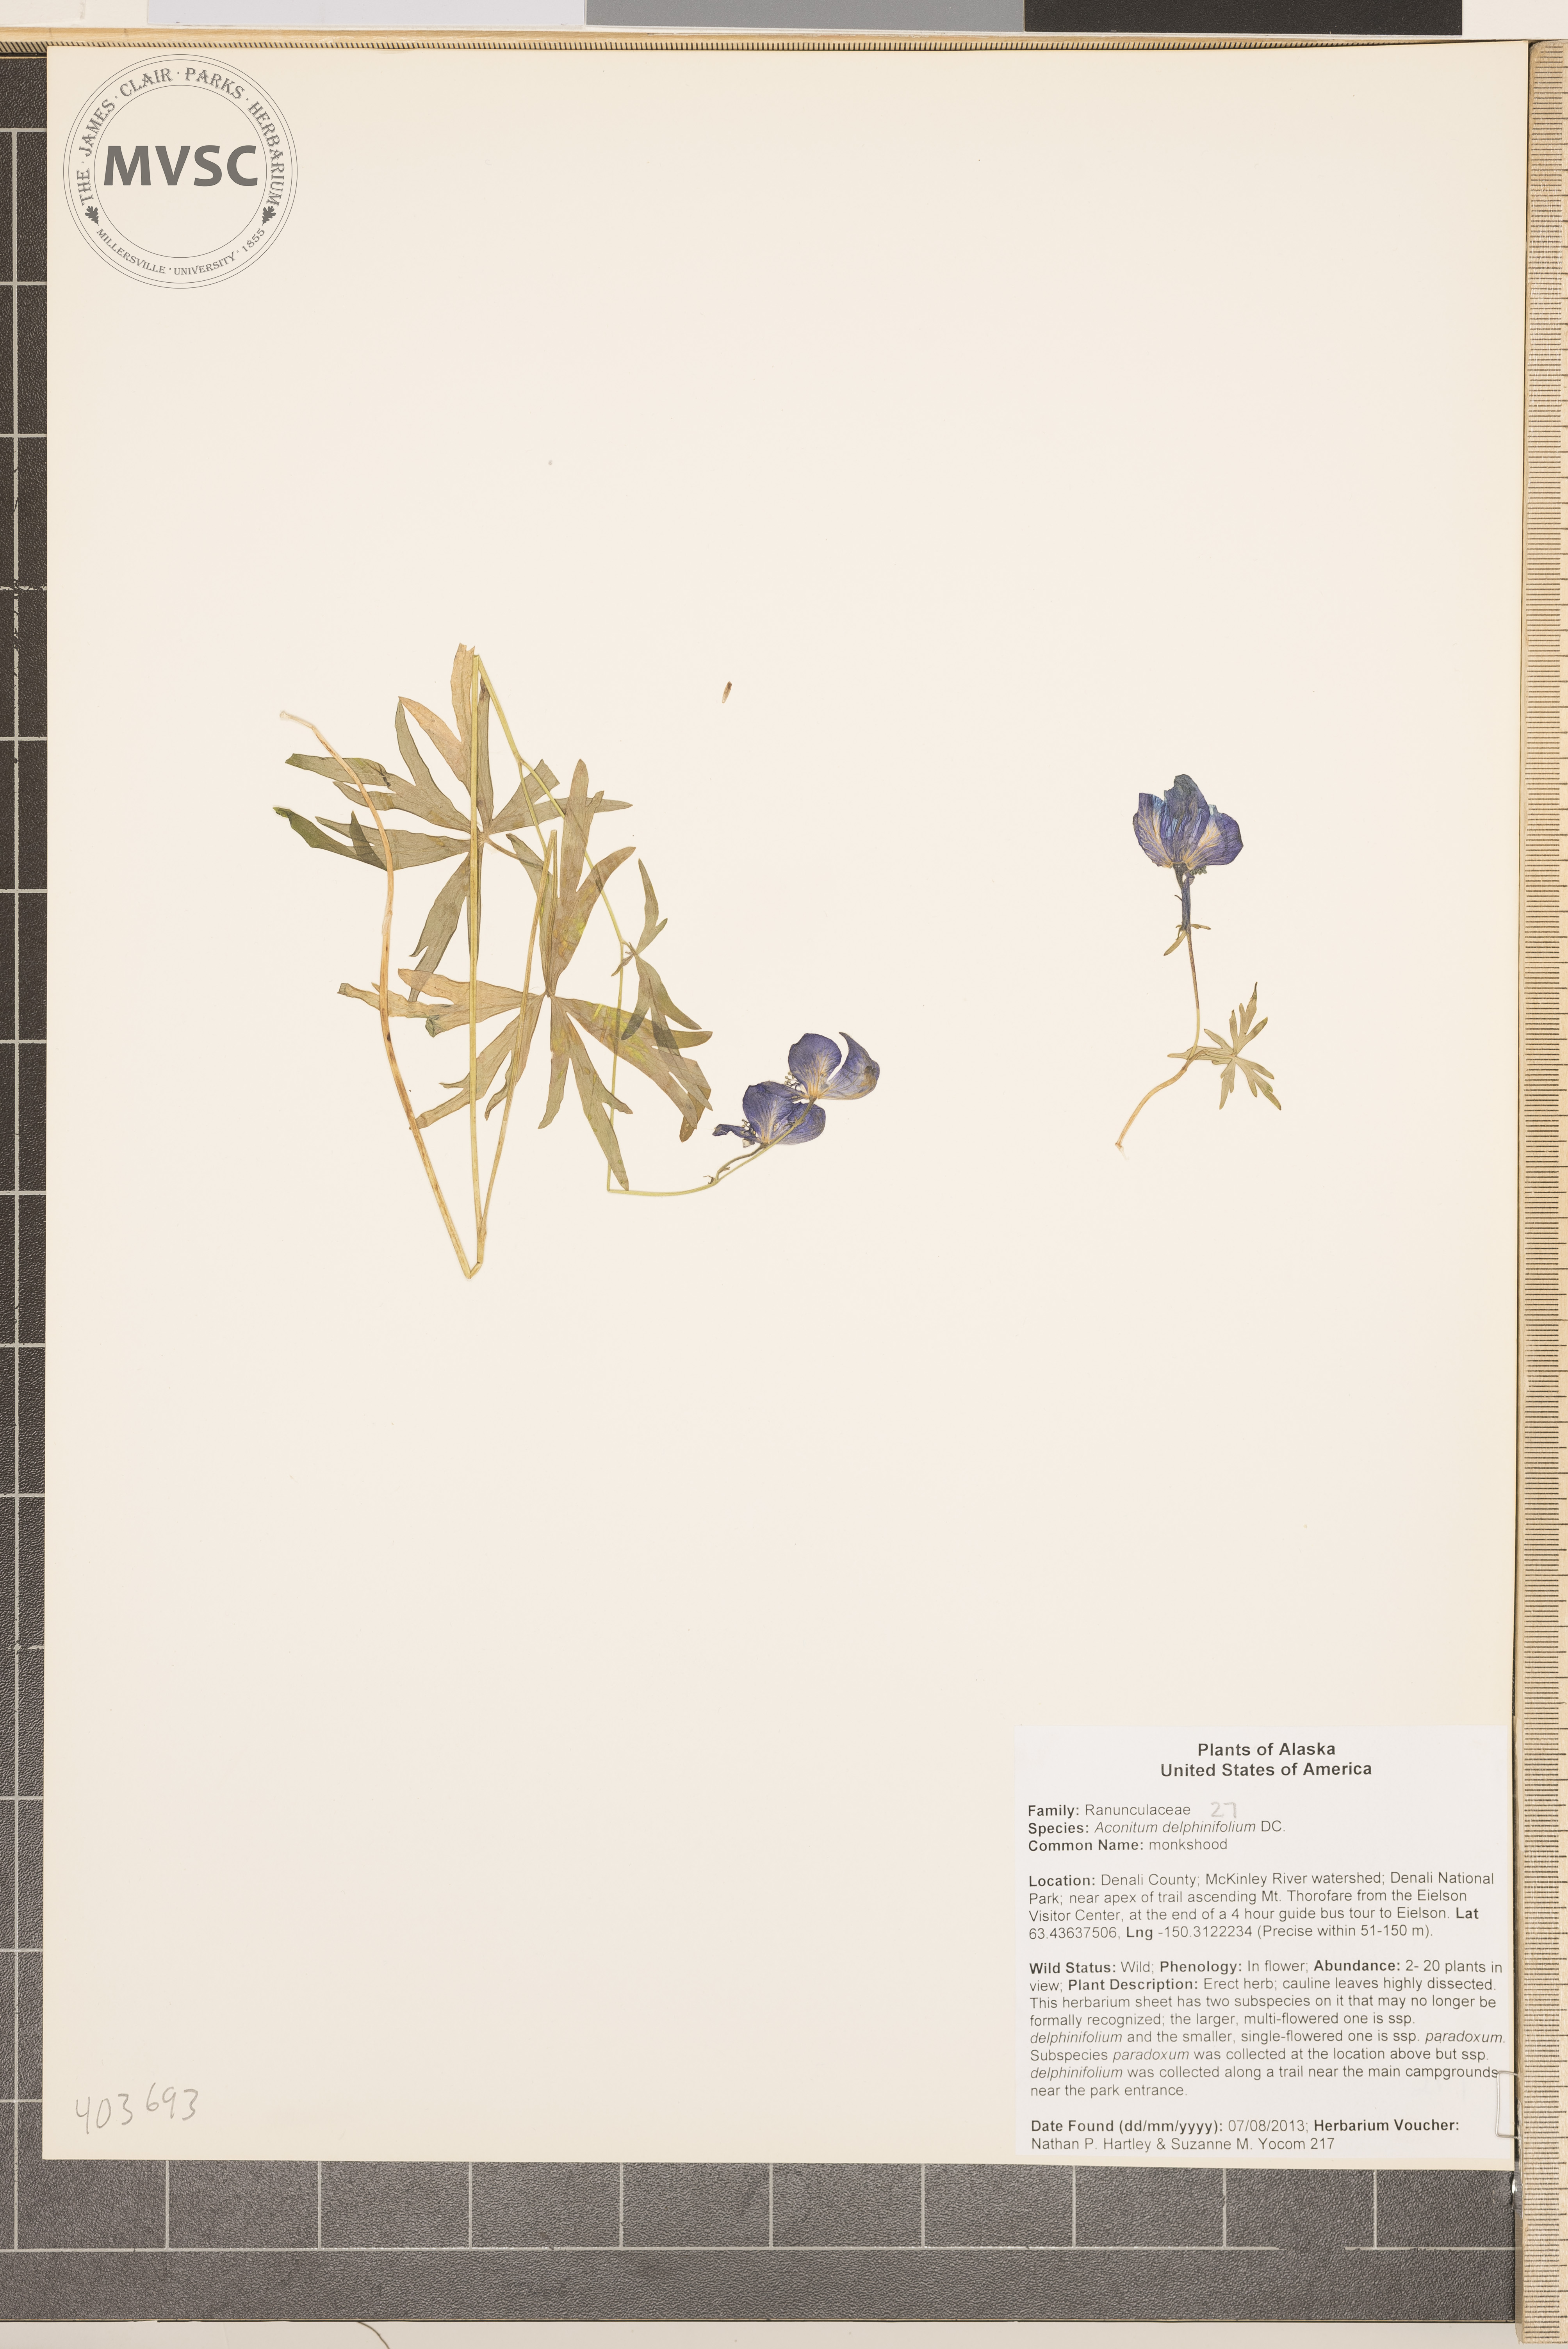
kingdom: Plantae
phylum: Tracheophyta
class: Magnoliopsida
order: Ranunculales
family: Ranunculaceae
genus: Aconitum
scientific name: Aconitum delphinifolium
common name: Monk's hood
